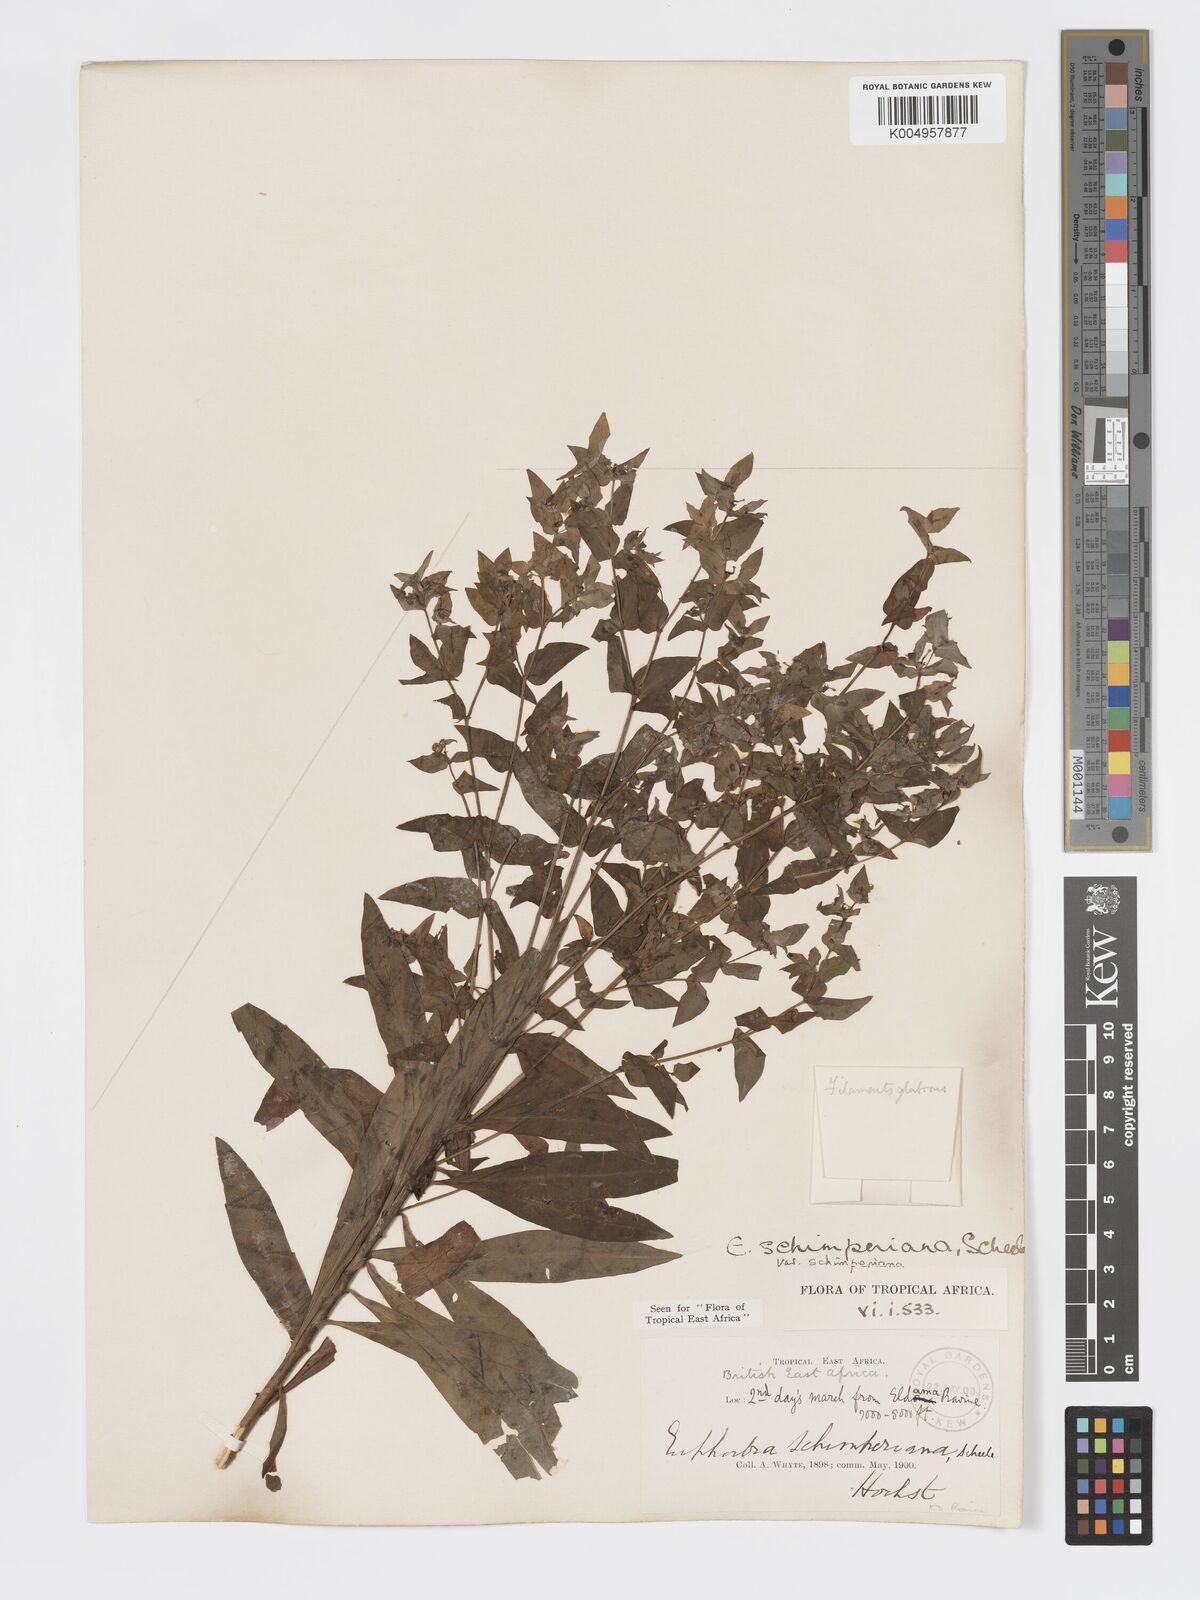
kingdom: Plantae
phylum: Tracheophyta
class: Magnoliopsida
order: Malpighiales
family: Euphorbiaceae
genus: Euphorbia
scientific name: Euphorbia schimperiana
